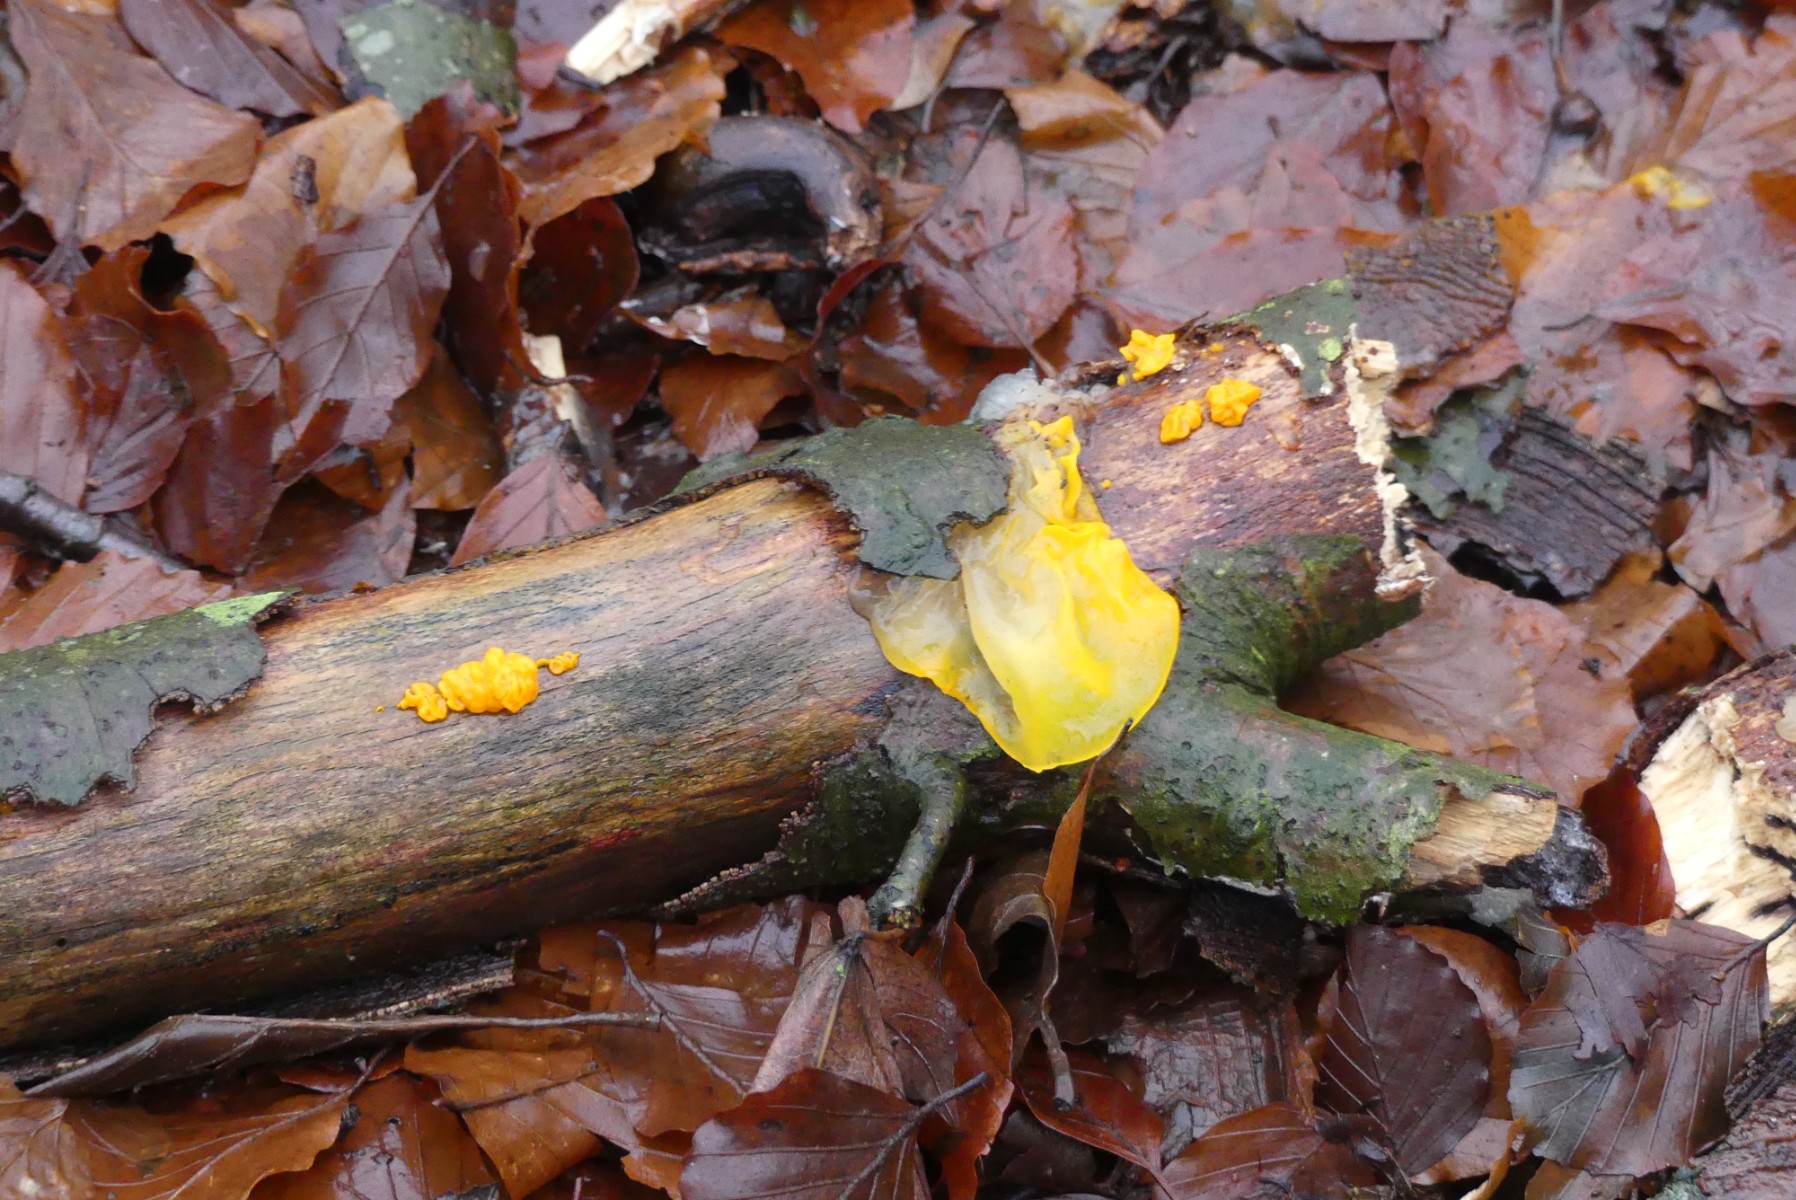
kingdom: Fungi
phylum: Basidiomycota
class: Tremellomycetes
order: Tremellales
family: Tremellaceae
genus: Tremella
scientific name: Tremella mesenterica
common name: gul bævresvamp
